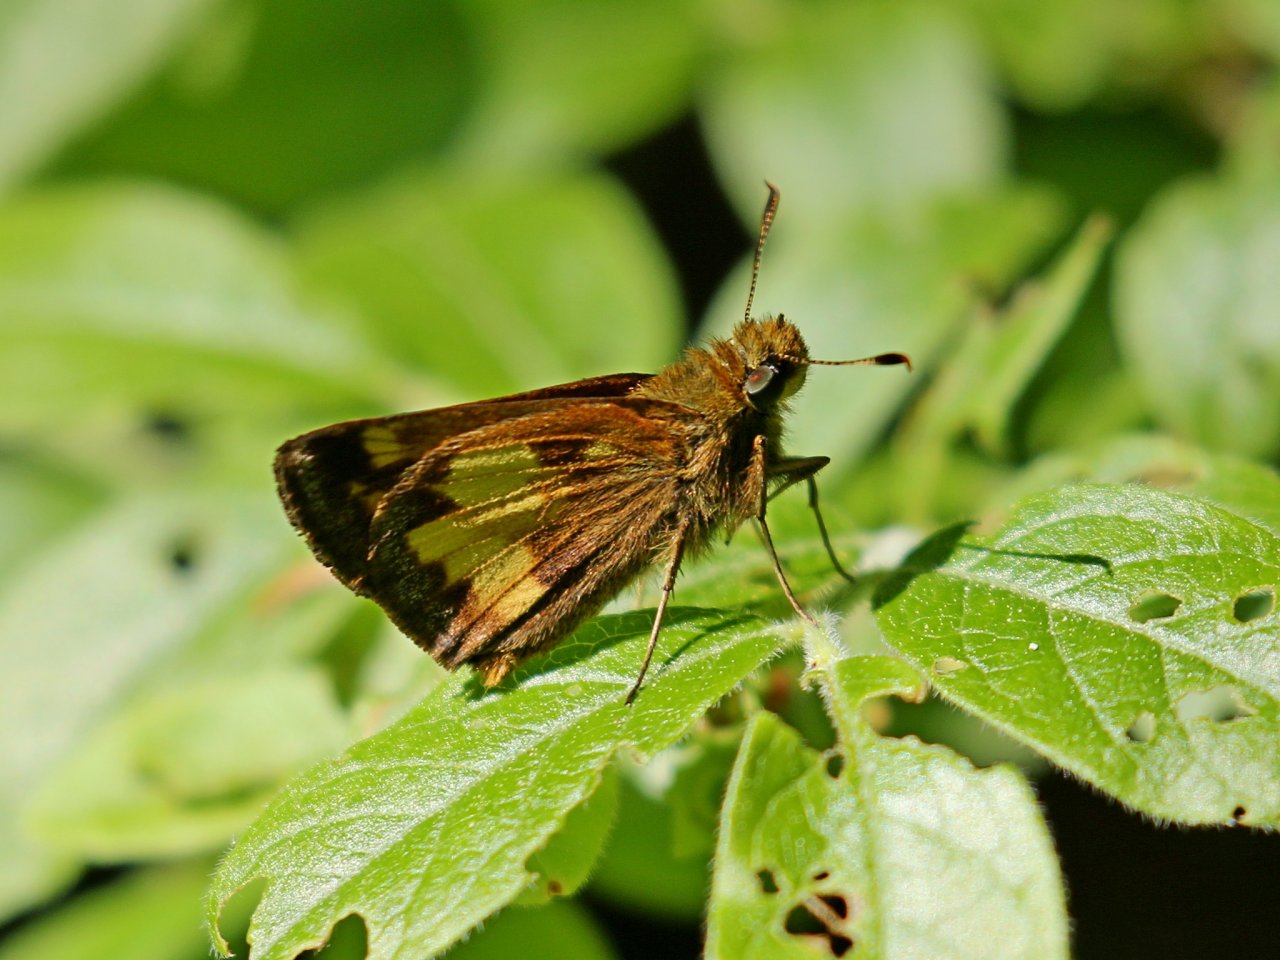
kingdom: Animalia
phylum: Arthropoda
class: Insecta
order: Lepidoptera
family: Hesperiidae
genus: Lon
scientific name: Lon hobomok
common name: Hobomok Skipper
